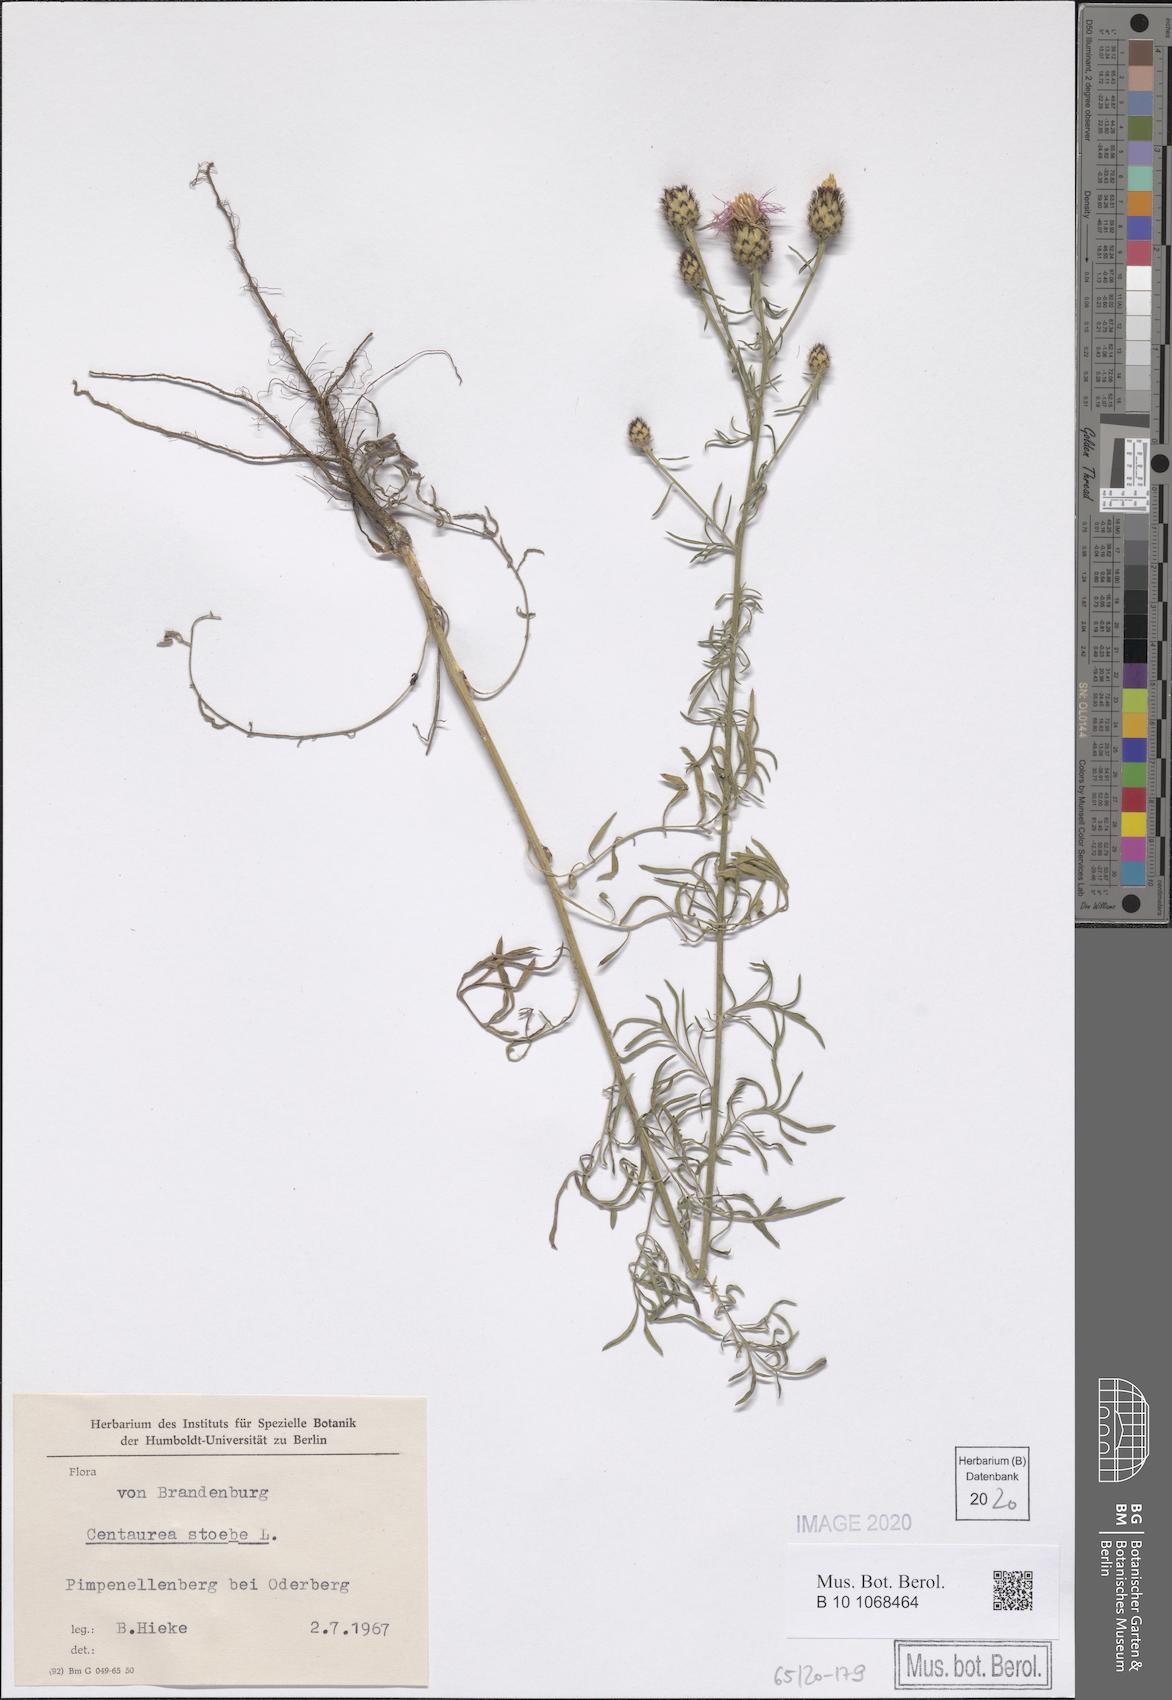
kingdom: Plantae
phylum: Tracheophyta
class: Magnoliopsida
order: Asterales
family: Asteraceae
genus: Centaurea
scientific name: Centaurea stoebe
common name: Spotted knapweed
